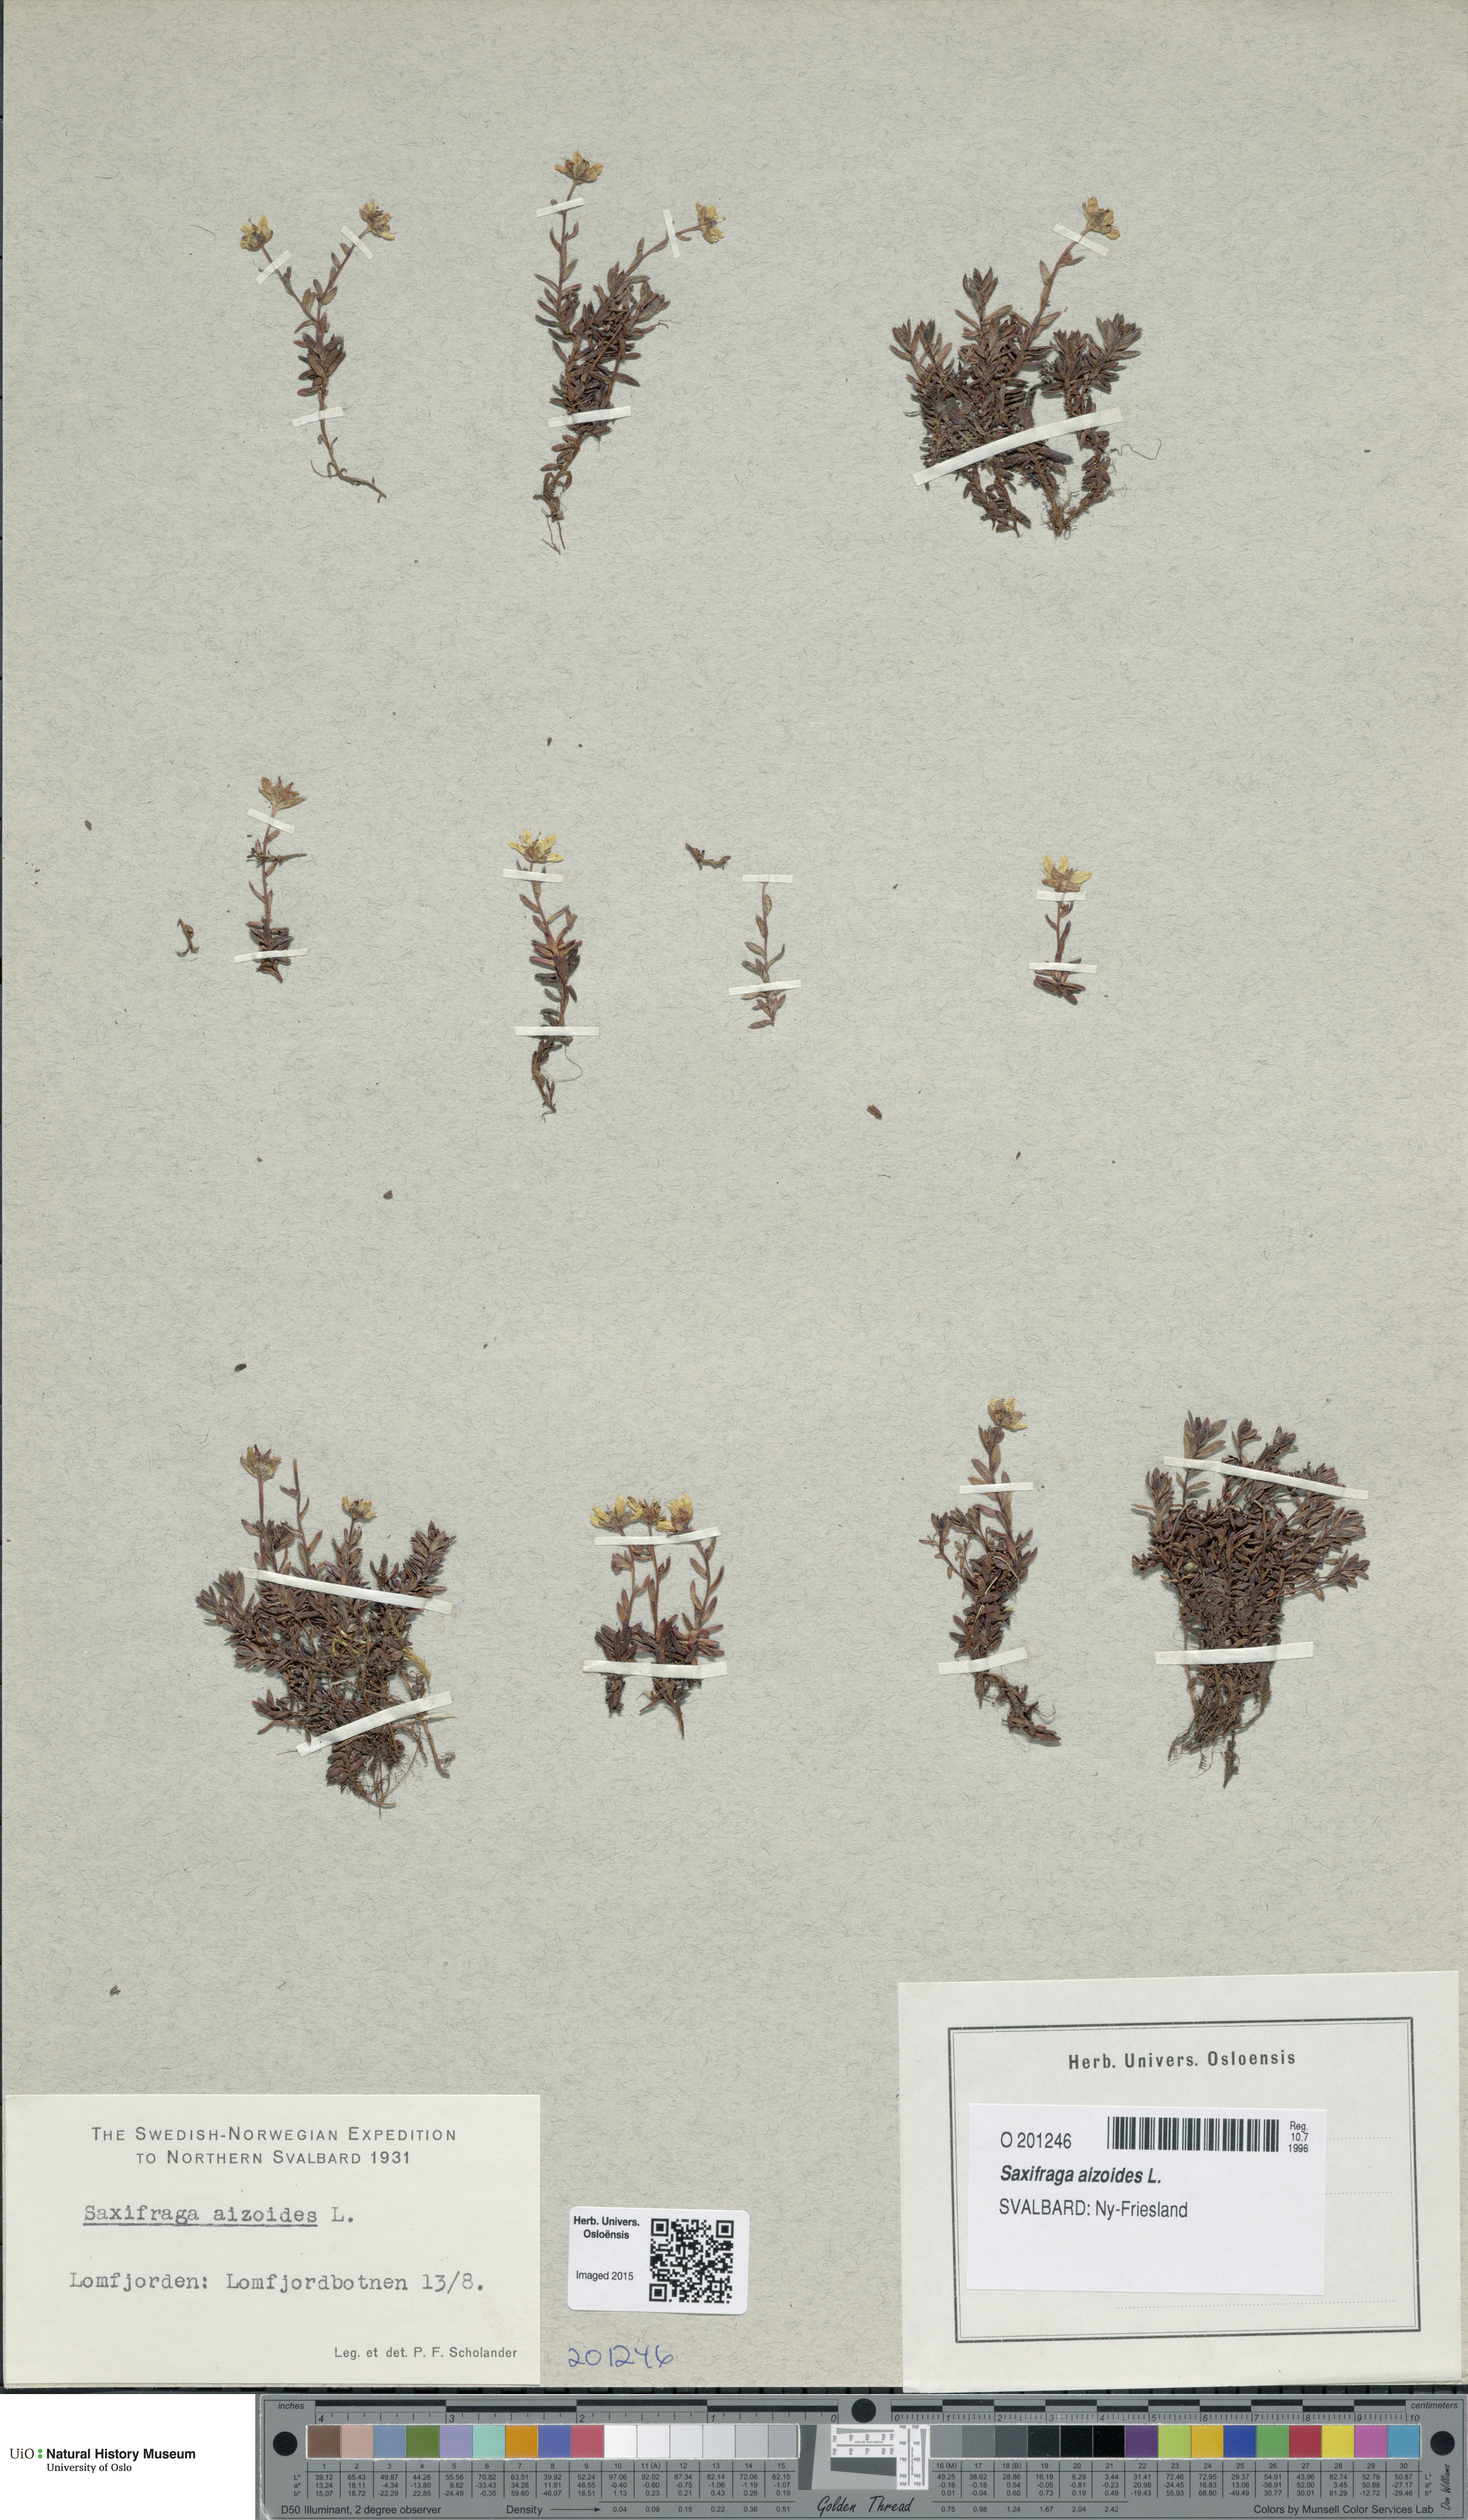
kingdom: Plantae
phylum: Tracheophyta
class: Magnoliopsida
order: Saxifragales
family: Saxifragaceae
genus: Saxifraga
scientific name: Saxifraga aizoides
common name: Yellow mountain saxifrage
